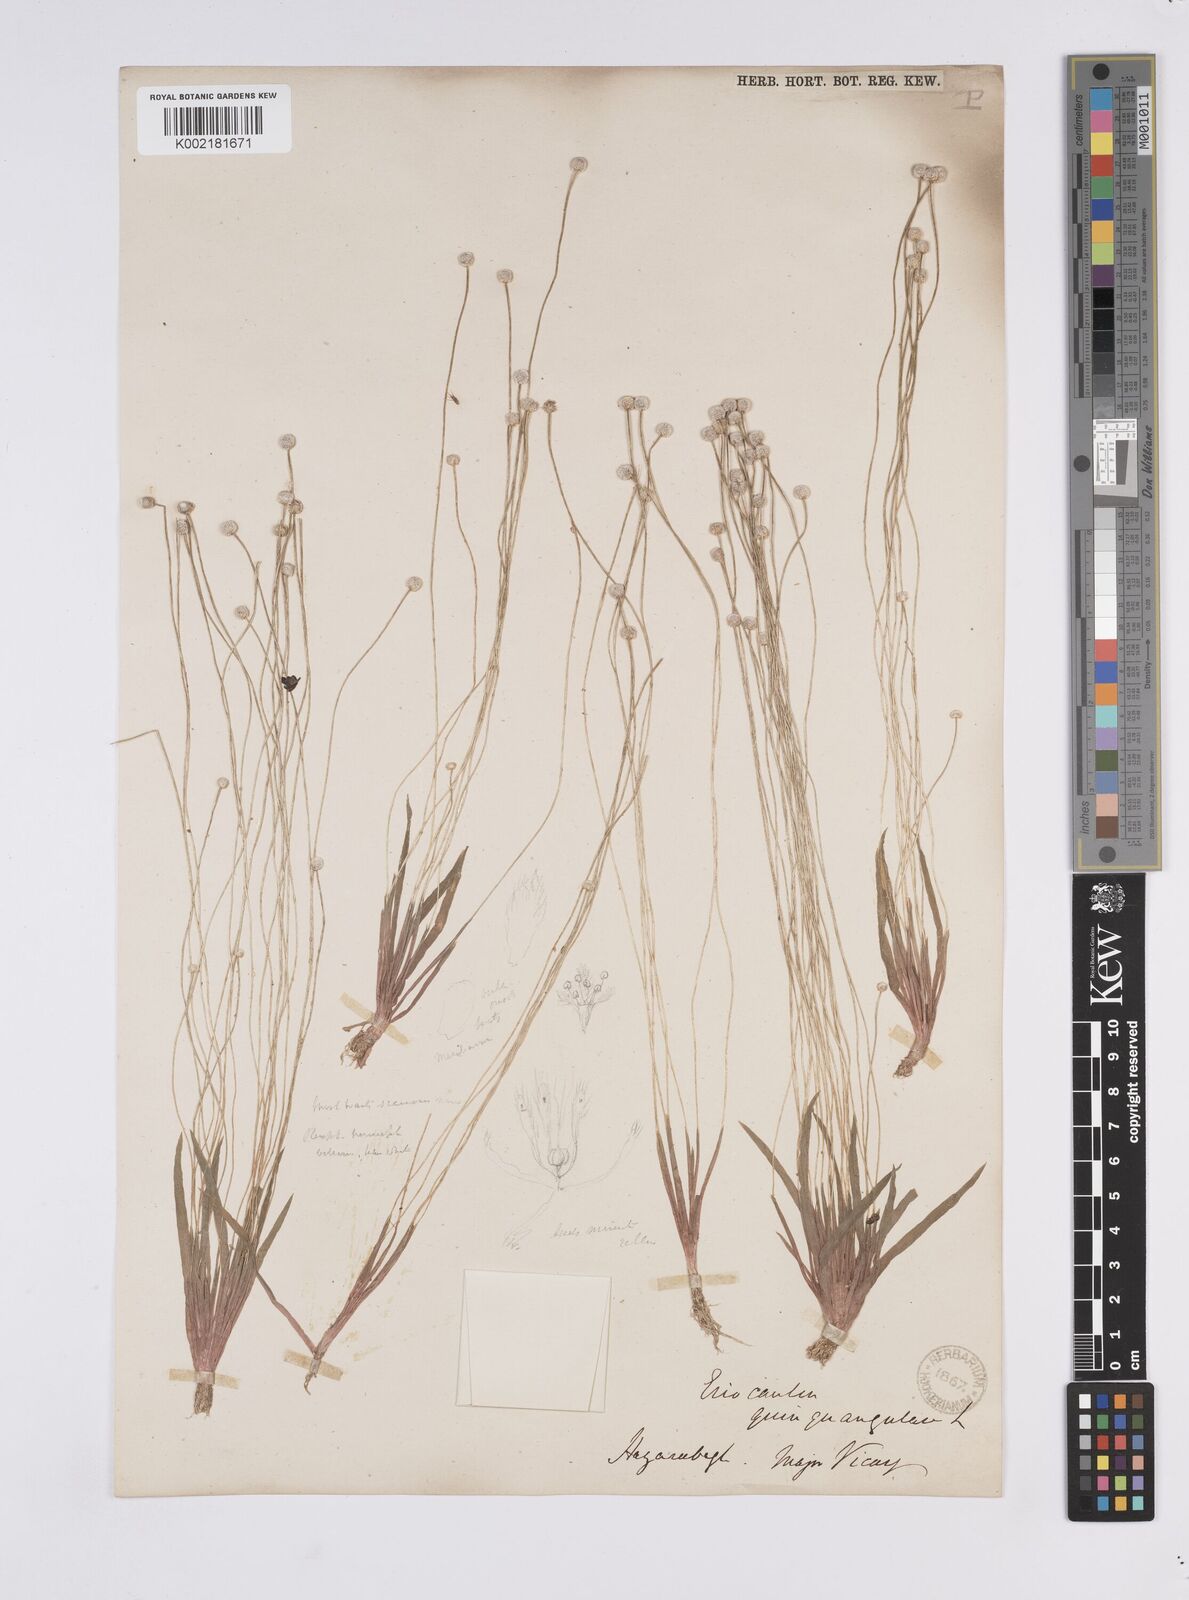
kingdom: Plantae
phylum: Tracheophyta
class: Liliopsida
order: Poales
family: Eriocaulaceae
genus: Eriocaulon
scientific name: Eriocaulon quinquangulare
